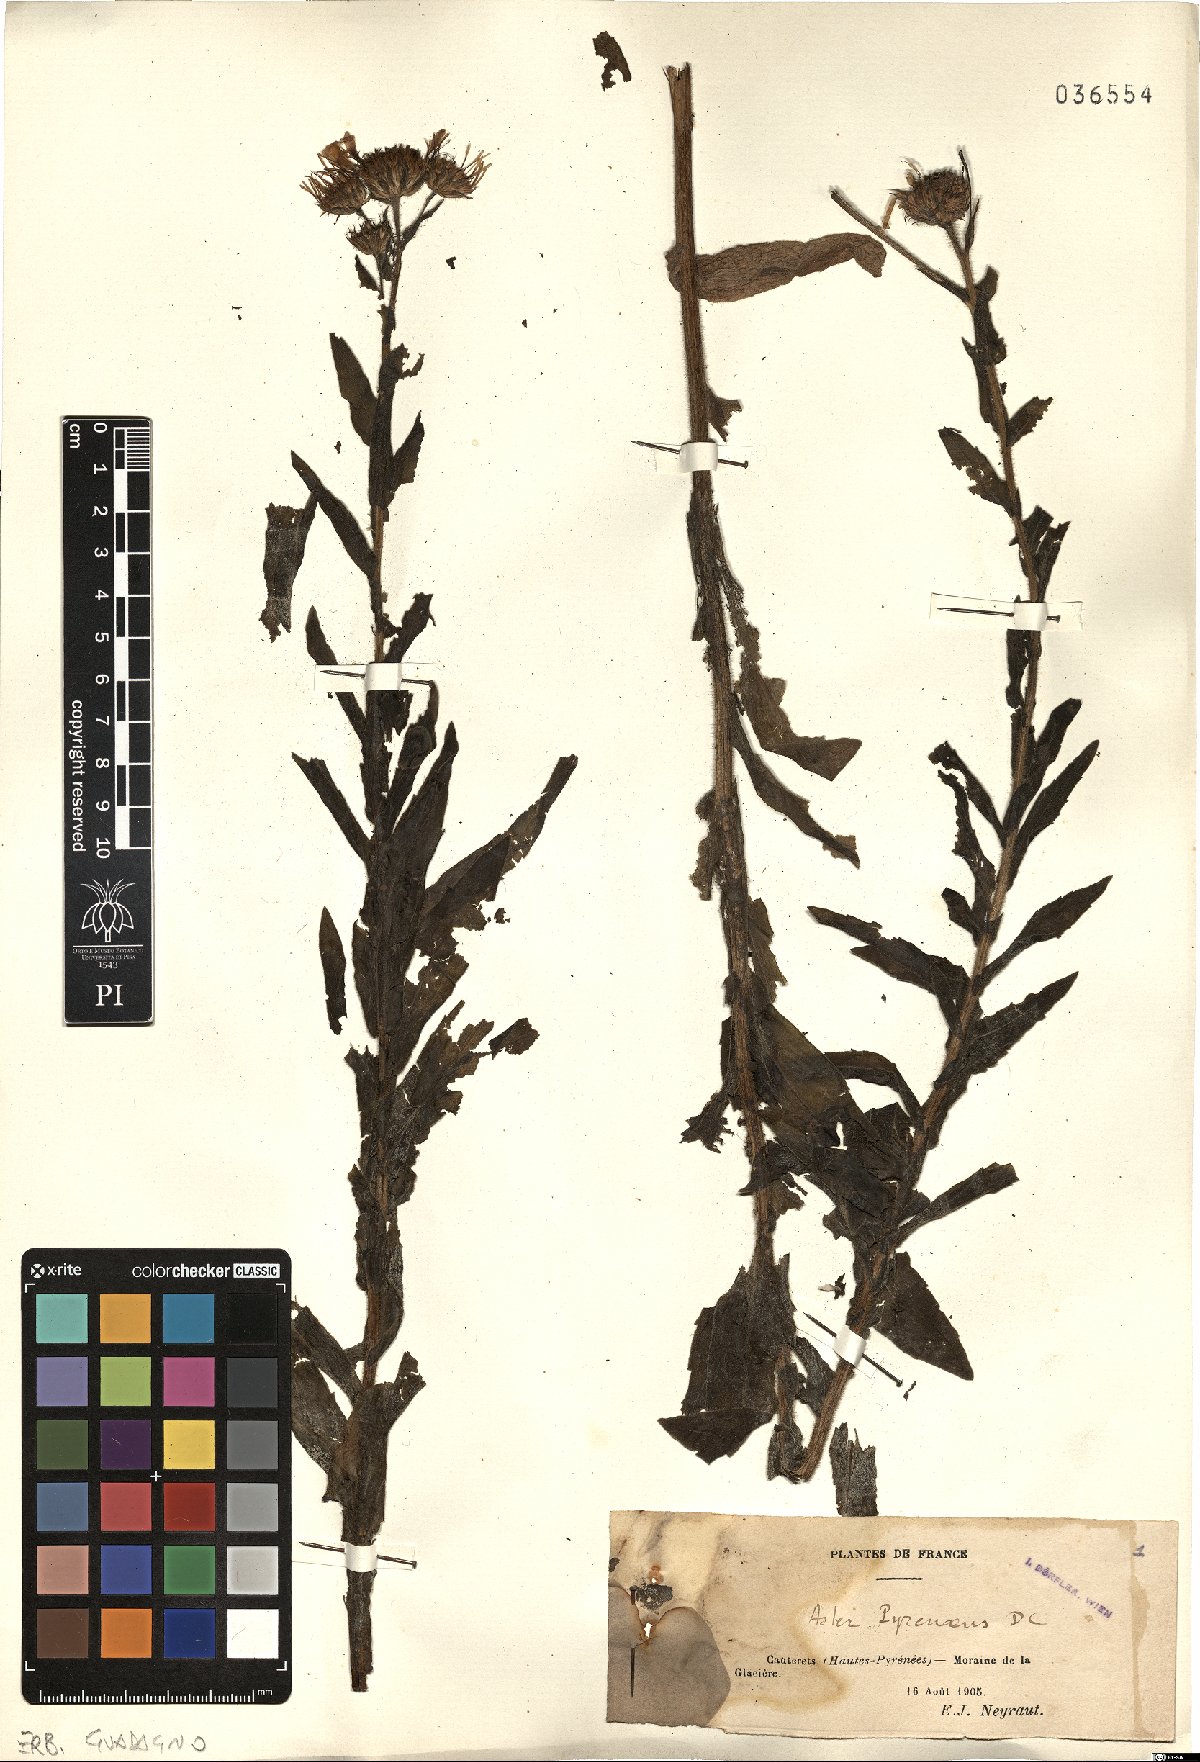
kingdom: Plantae
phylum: Tracheophyta
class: Magnoliopsida
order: Asterales
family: Asteraceae
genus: Erigeron
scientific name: Erigeron glabratus
